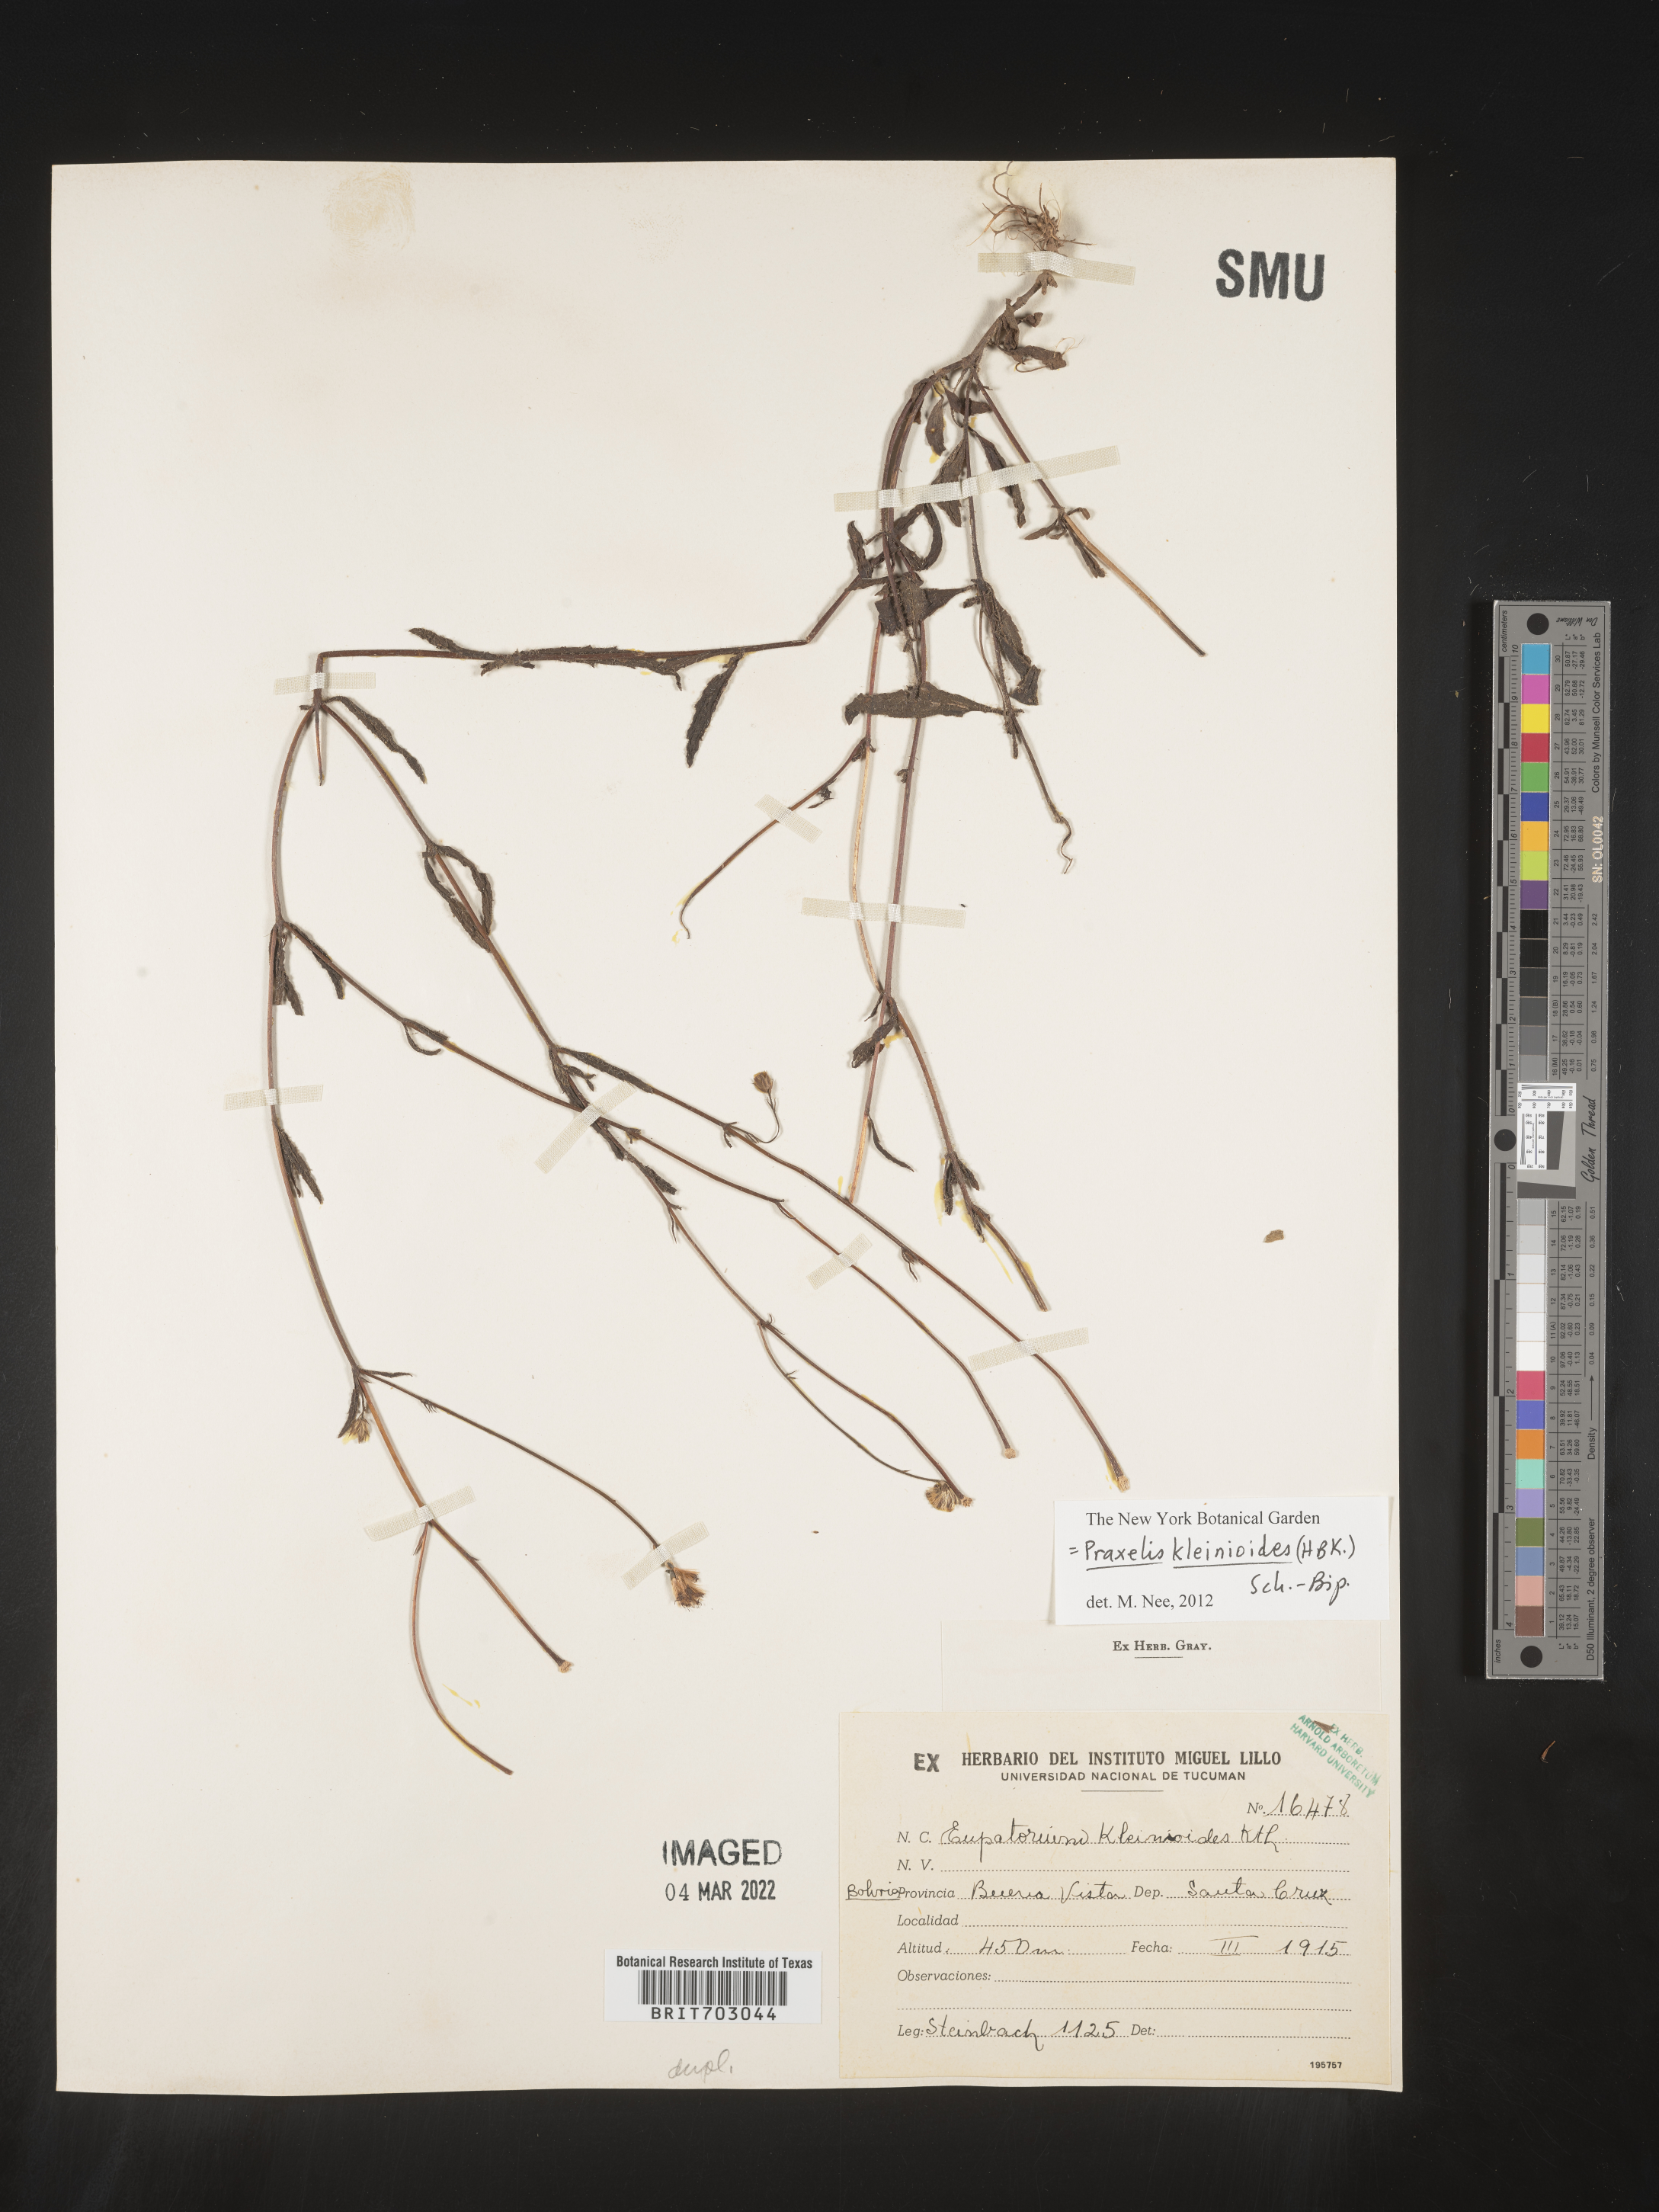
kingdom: Plantae
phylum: Tracheophyta
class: Magnoliopsida
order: Asterales
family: Asteraceae
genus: Eupatorium
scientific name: Eupatorium
